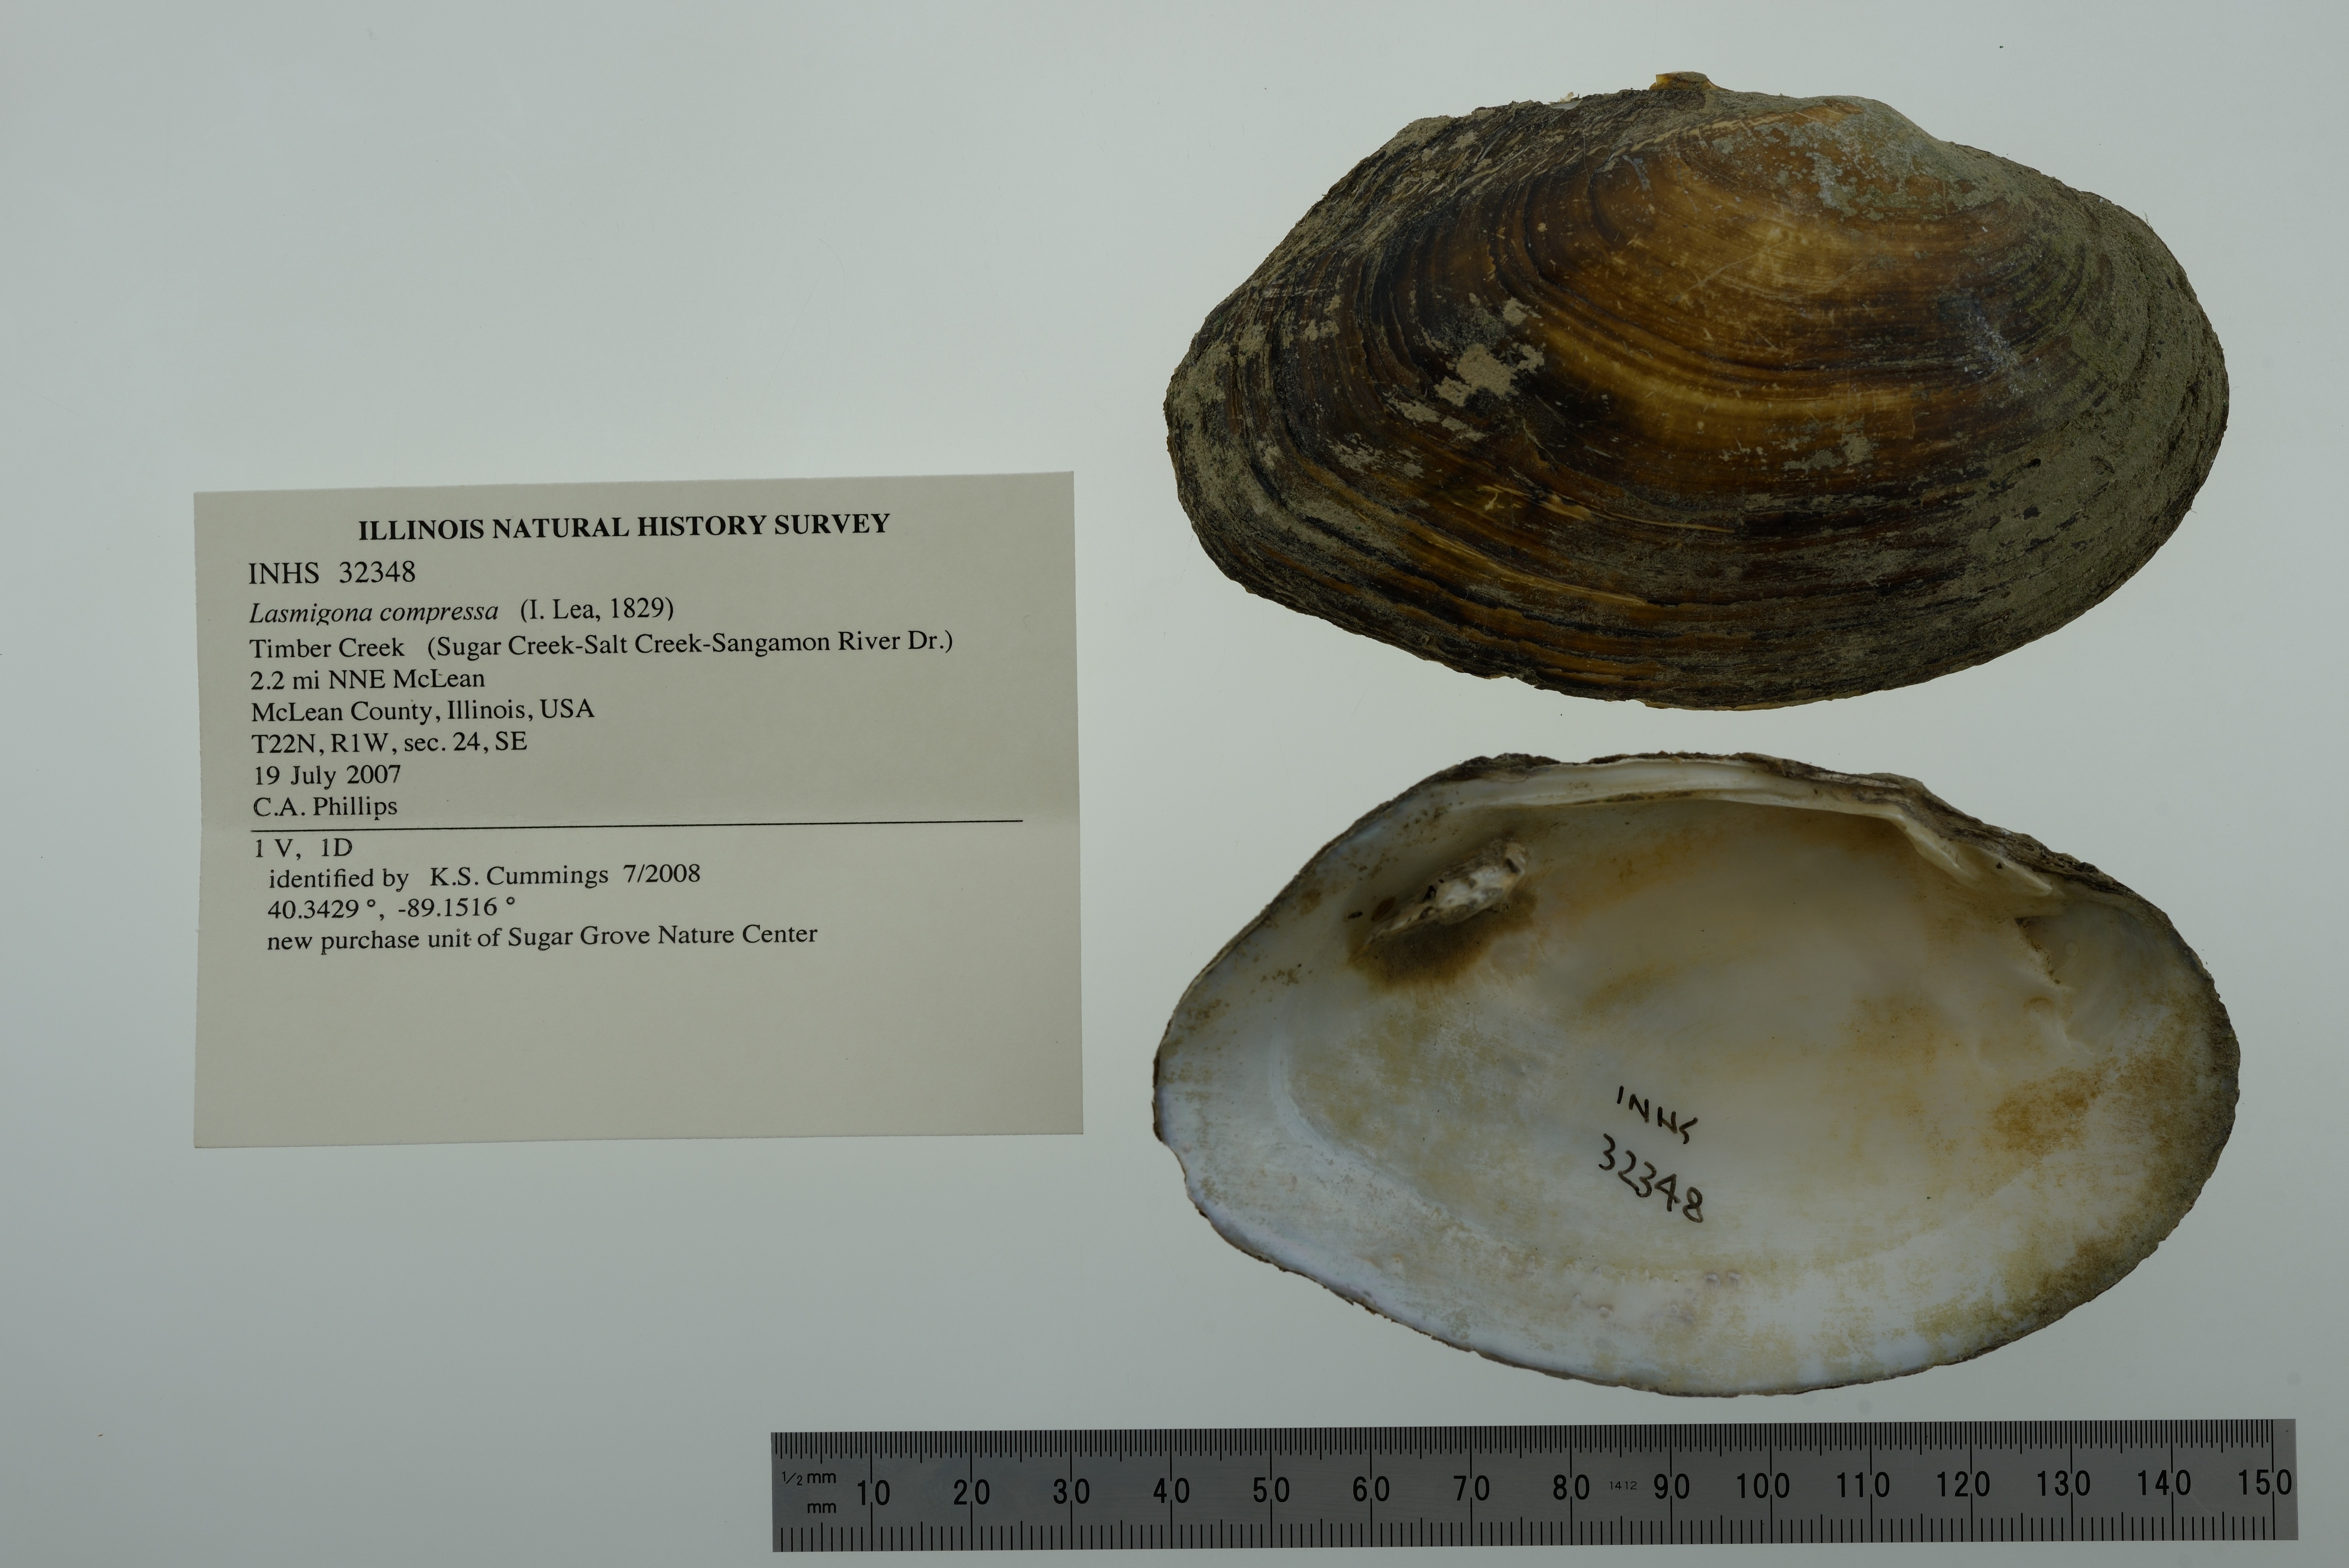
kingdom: Animalia
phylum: Mollusca
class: Bivalvia
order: Unionida
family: Unionidae
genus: Lasmigona
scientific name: Lasmigona compressa
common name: Creek heelsplitter
